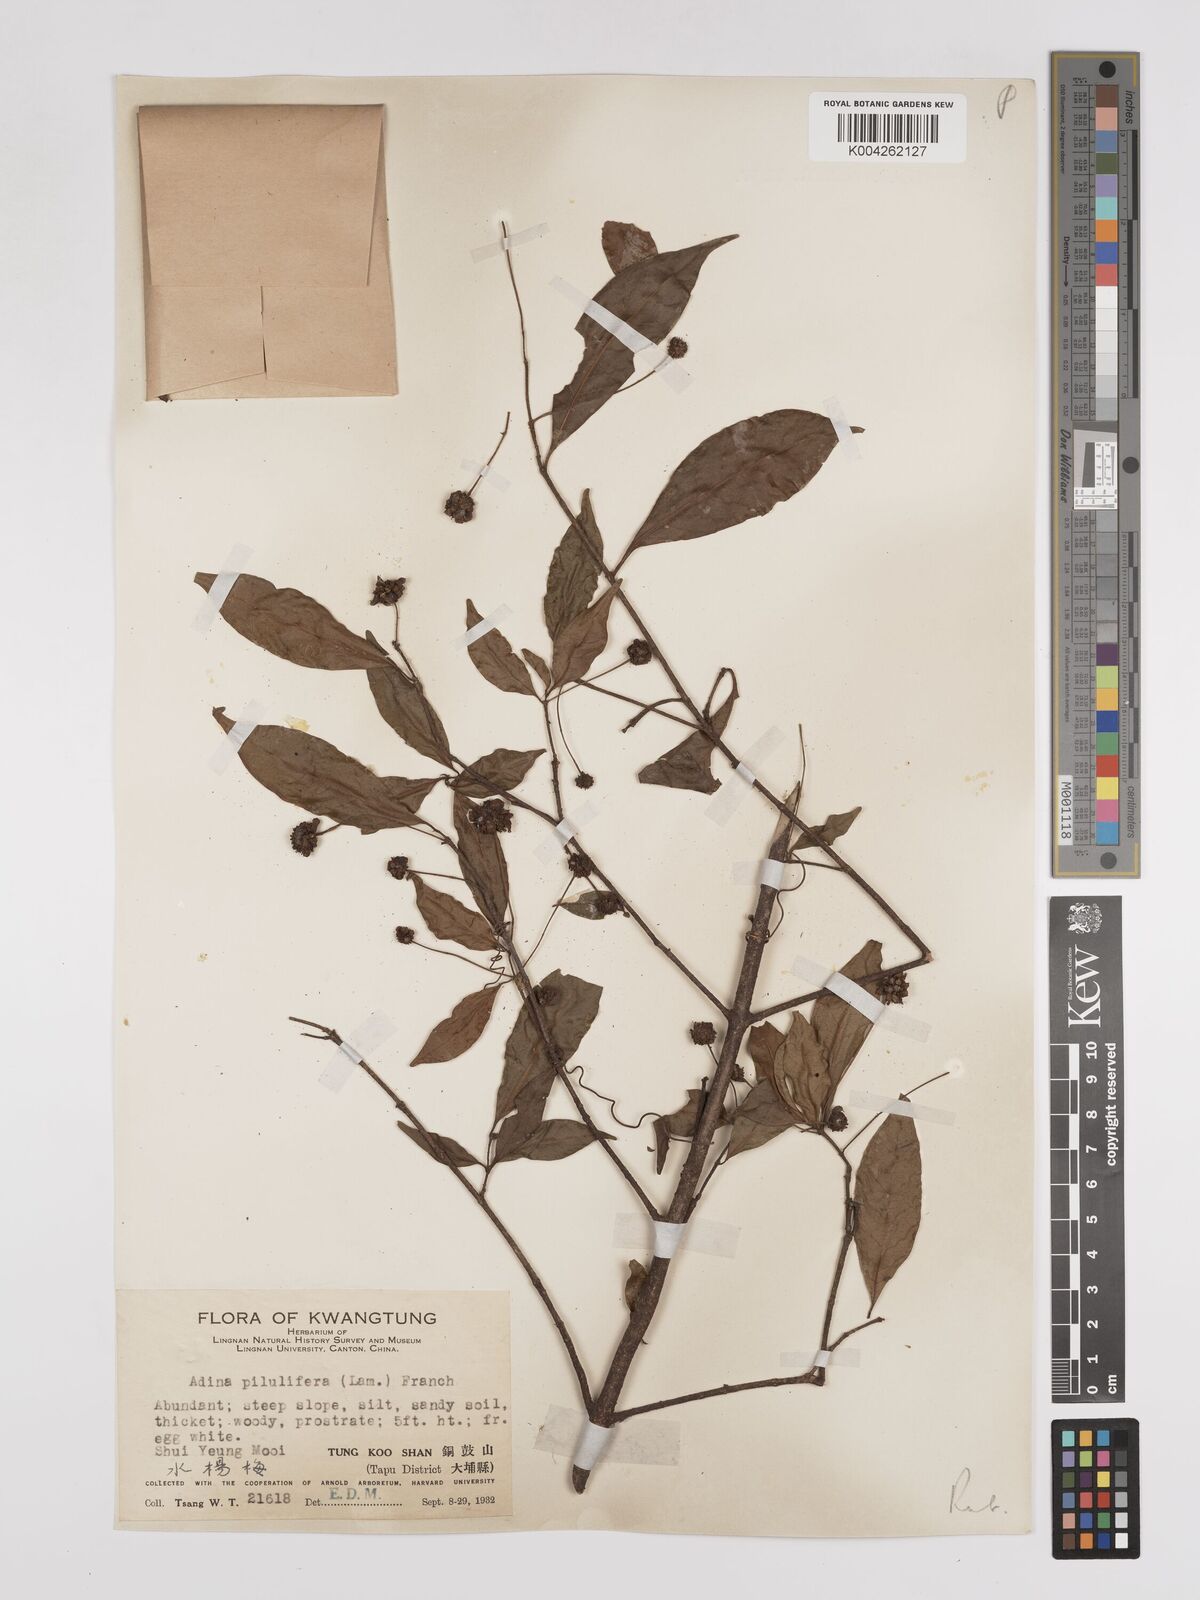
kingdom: Plantae
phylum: Tracheophyta
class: Magnoliopsida
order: Gentianales
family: Rubiaceae
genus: Adina
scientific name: Adina pilulifera
